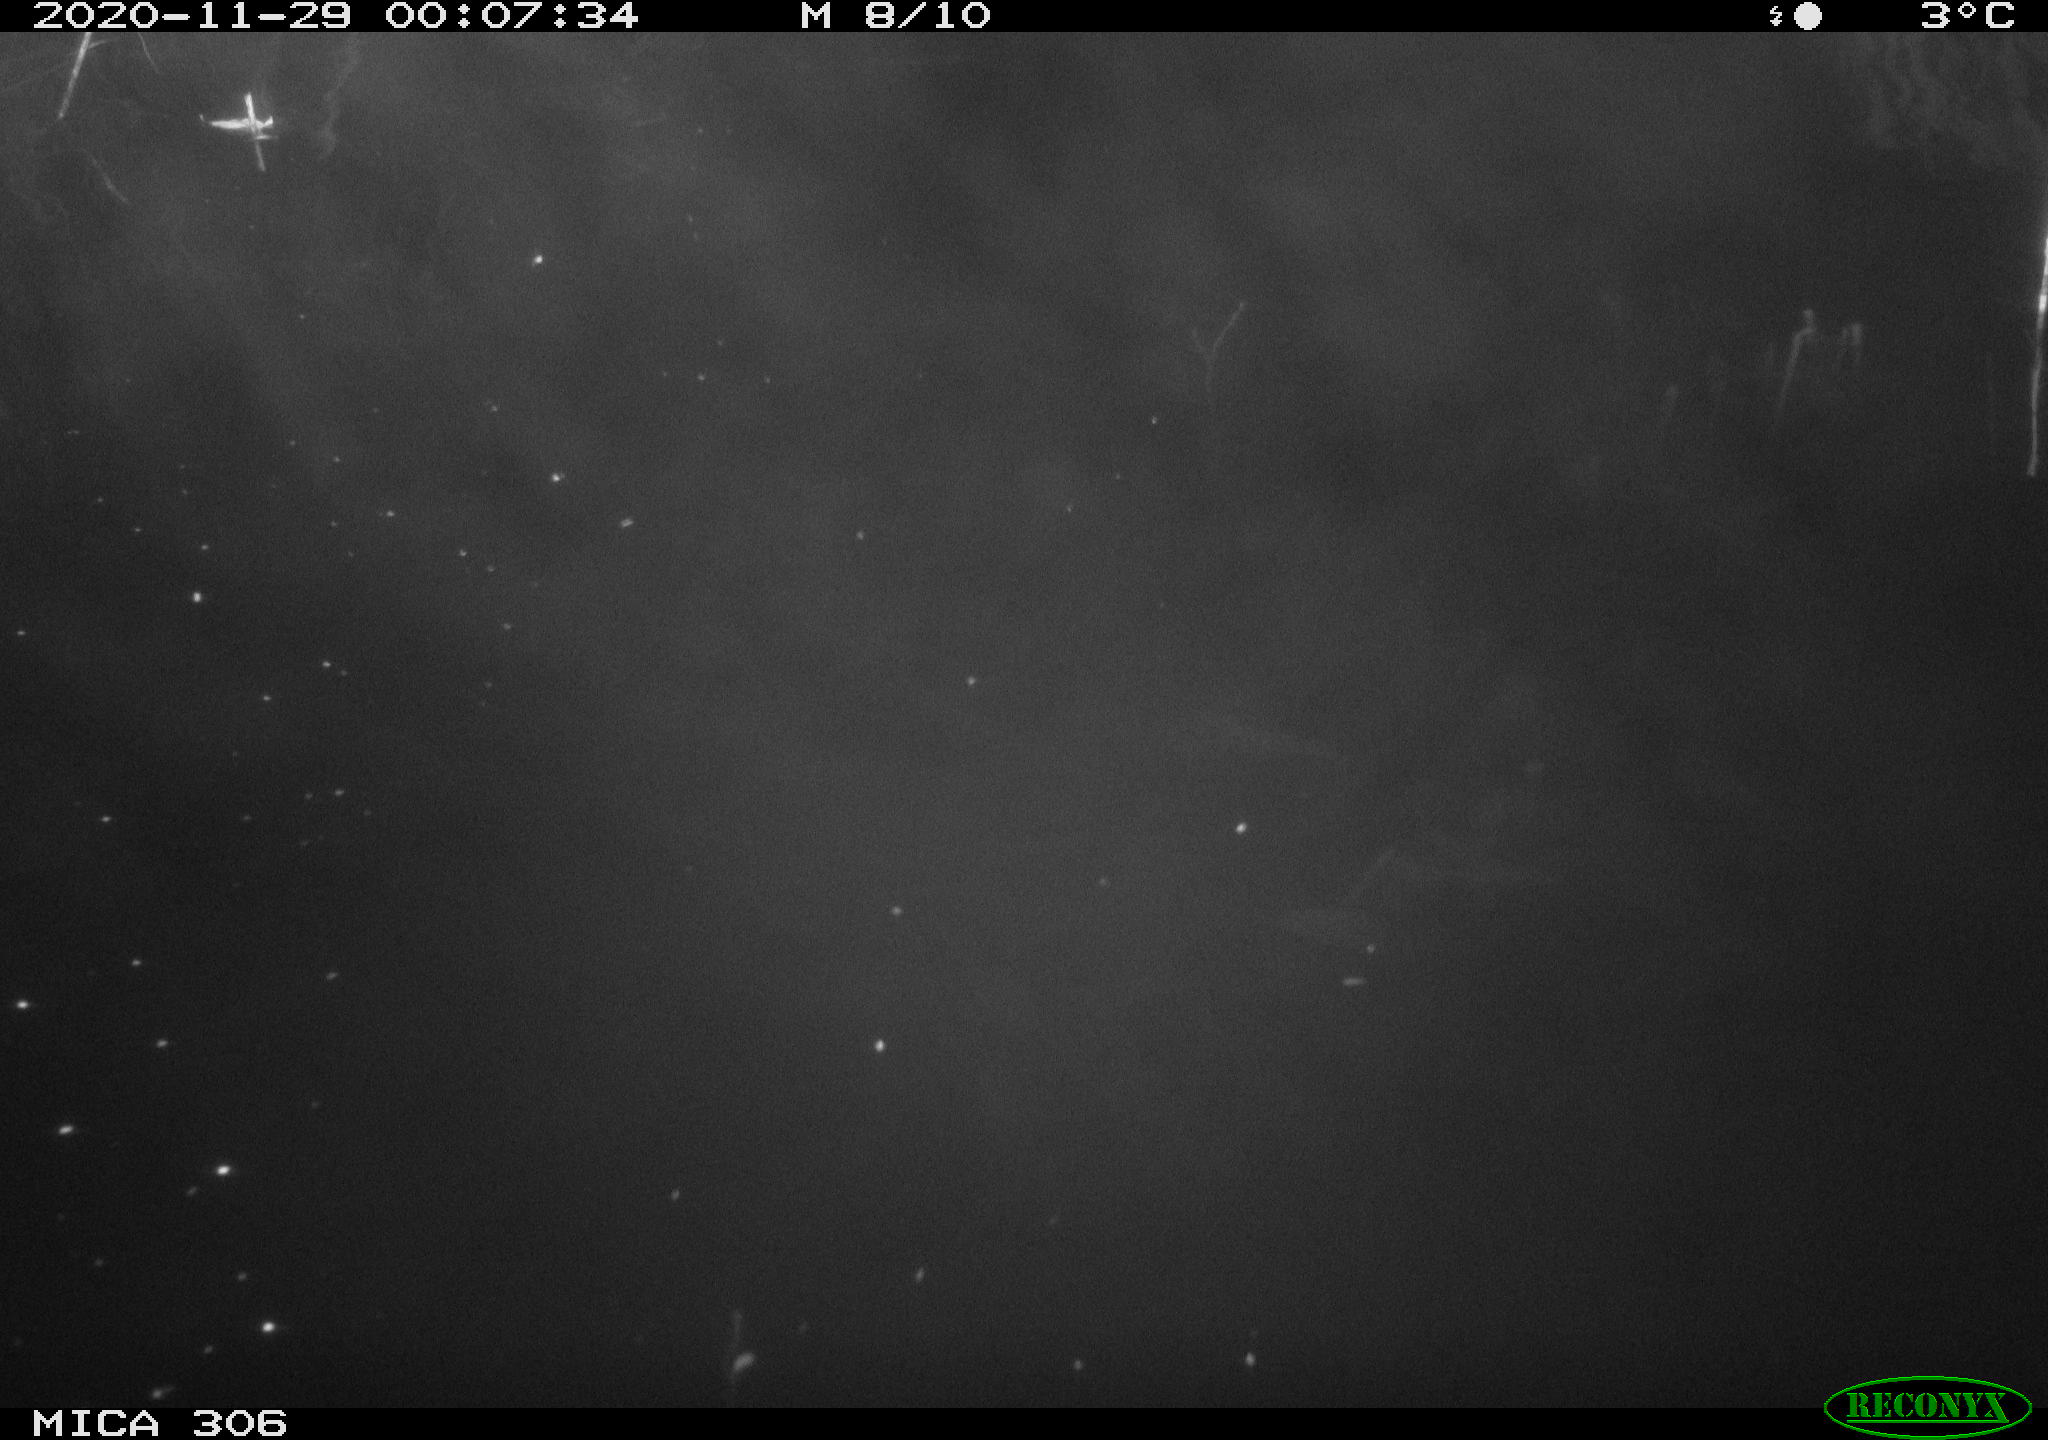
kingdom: Animalia
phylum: Chordata
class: Mammalia
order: Rodentia
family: Cricetidae
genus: Ondatra
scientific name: Ondatra zibethicus
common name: Muskrat
